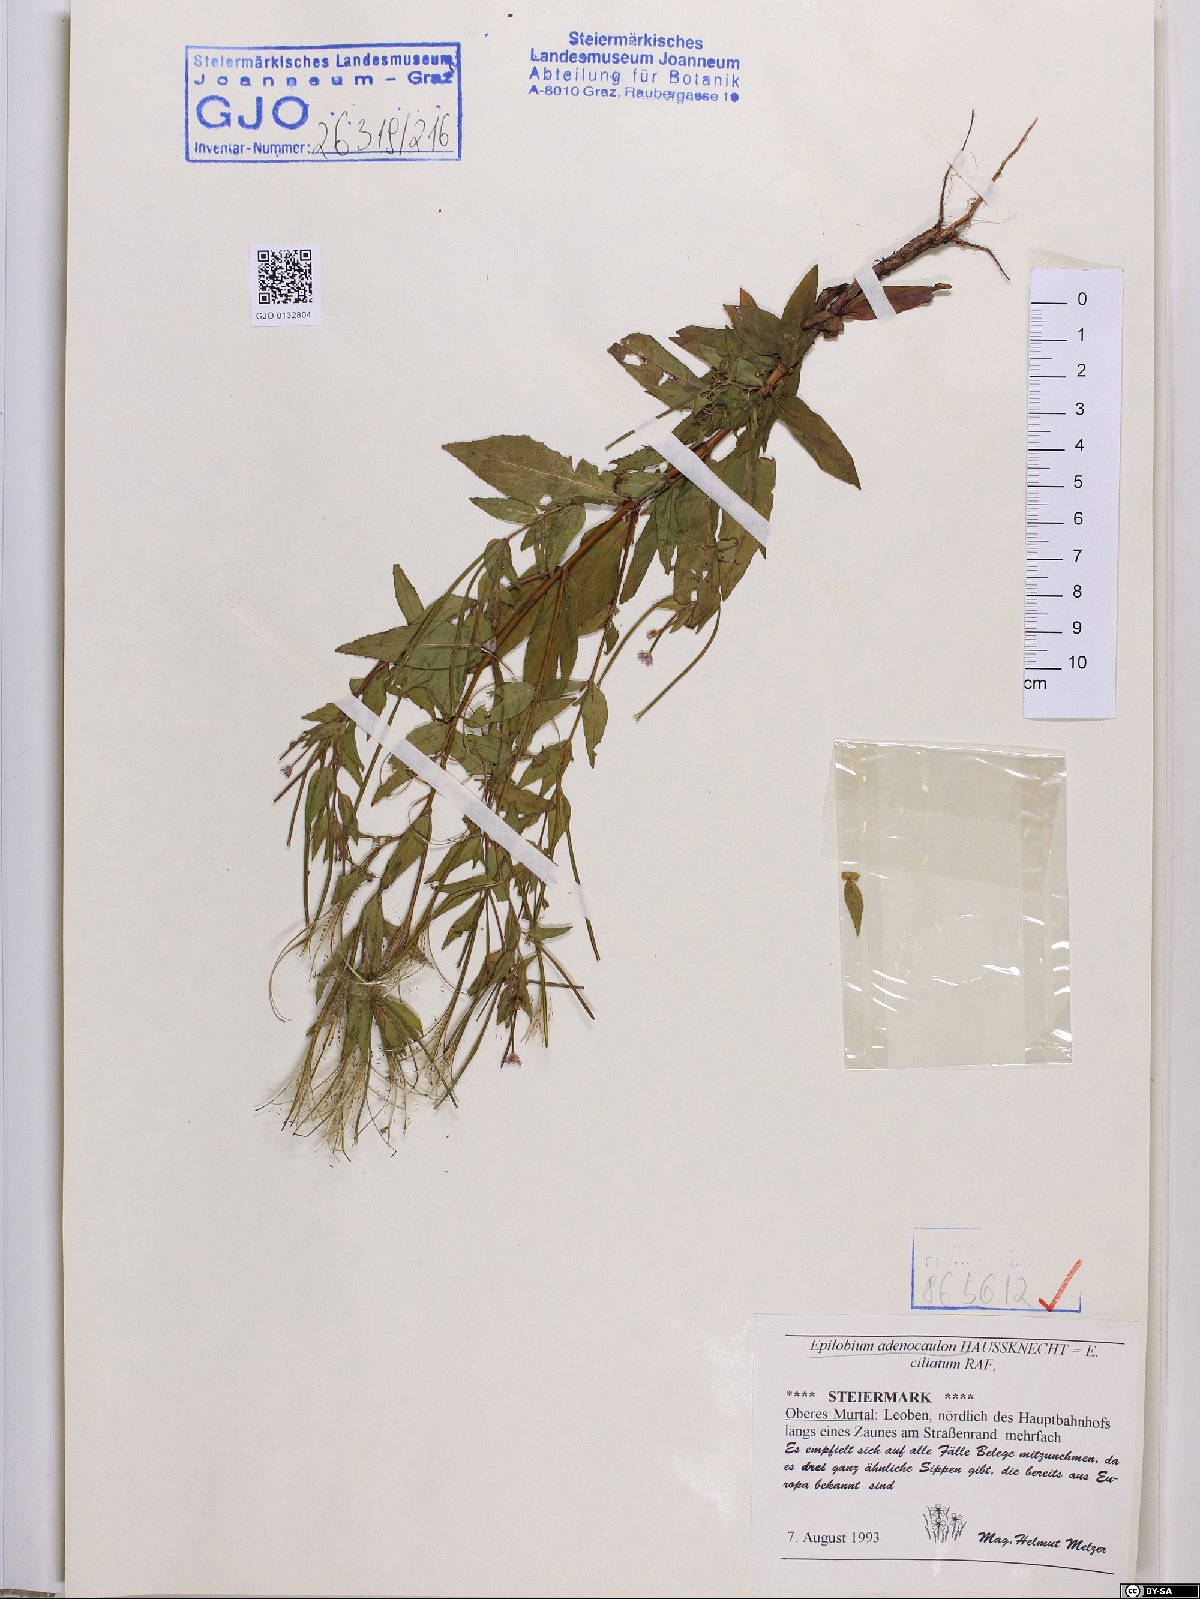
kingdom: Plantae
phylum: Tracheophyta
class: Magnoliopsida
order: Myrtales
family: Onagraceae
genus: Epilobium
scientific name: Epilobium ciliatum
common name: American willowherb
